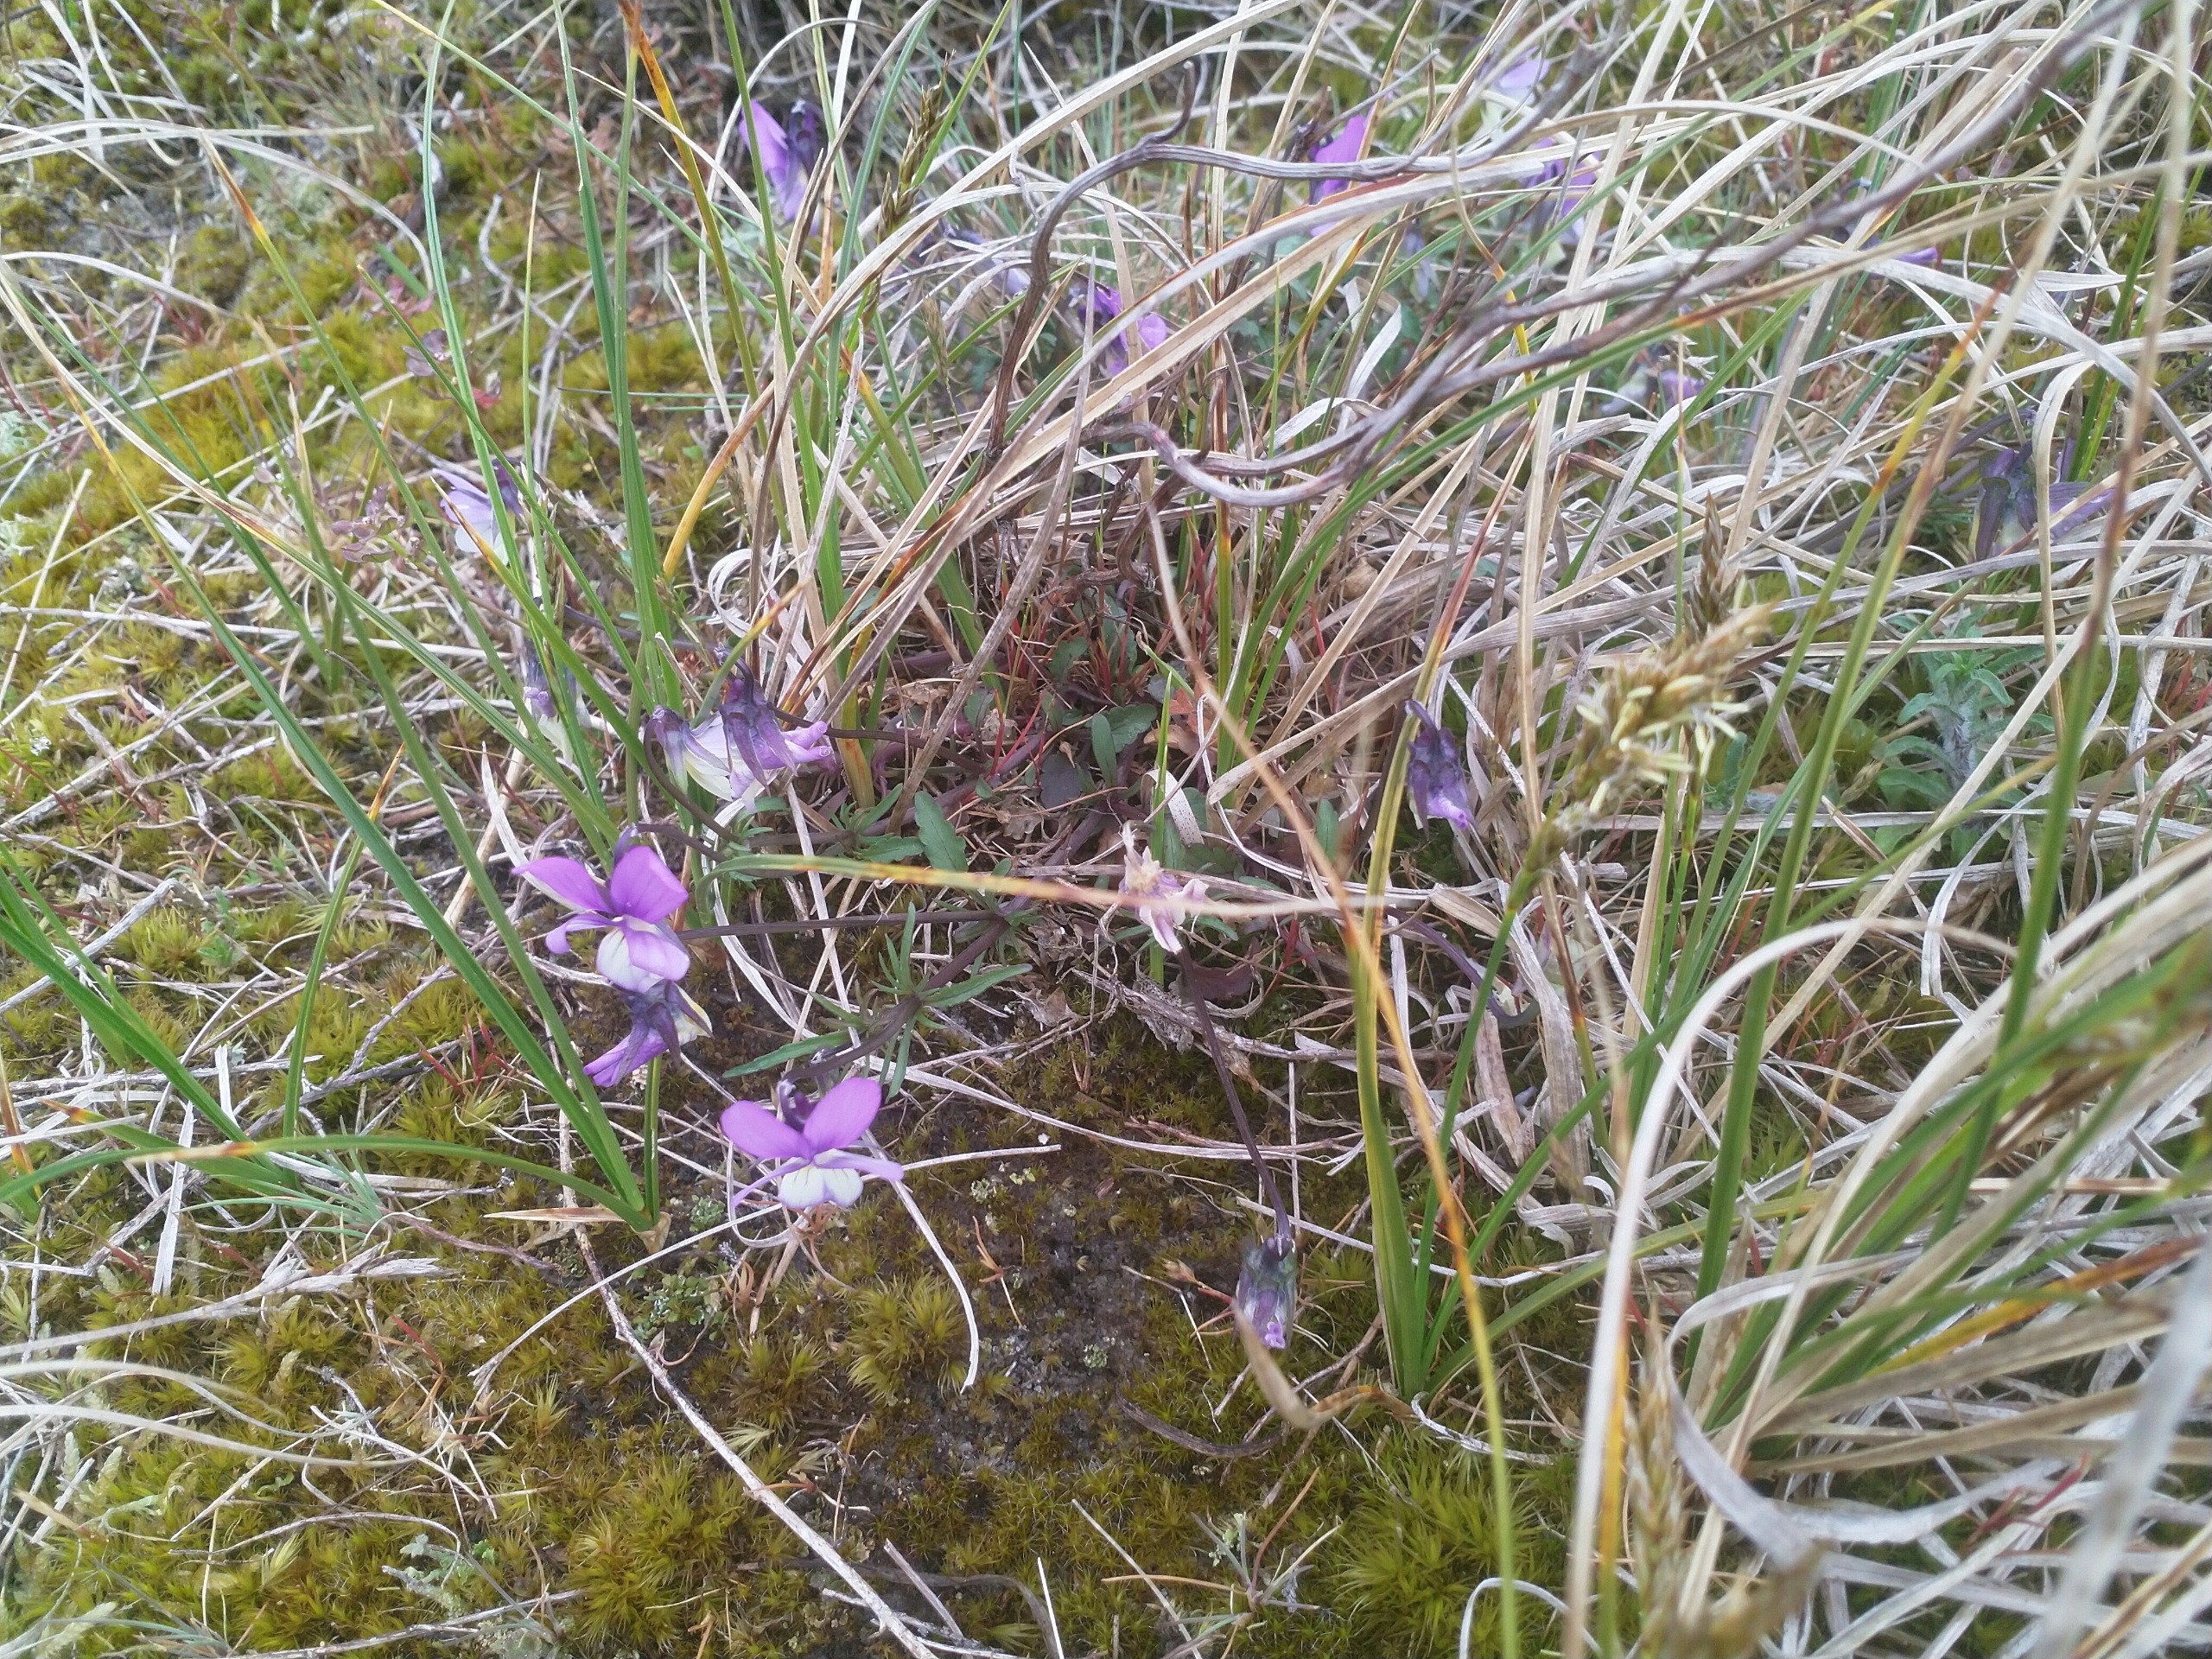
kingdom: Plantae
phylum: Tracheophyta
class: Magnoliopsida
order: Malpighiales
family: Violaceae
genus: Viola
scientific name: Viola tricolor
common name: Stedmoderblomst
